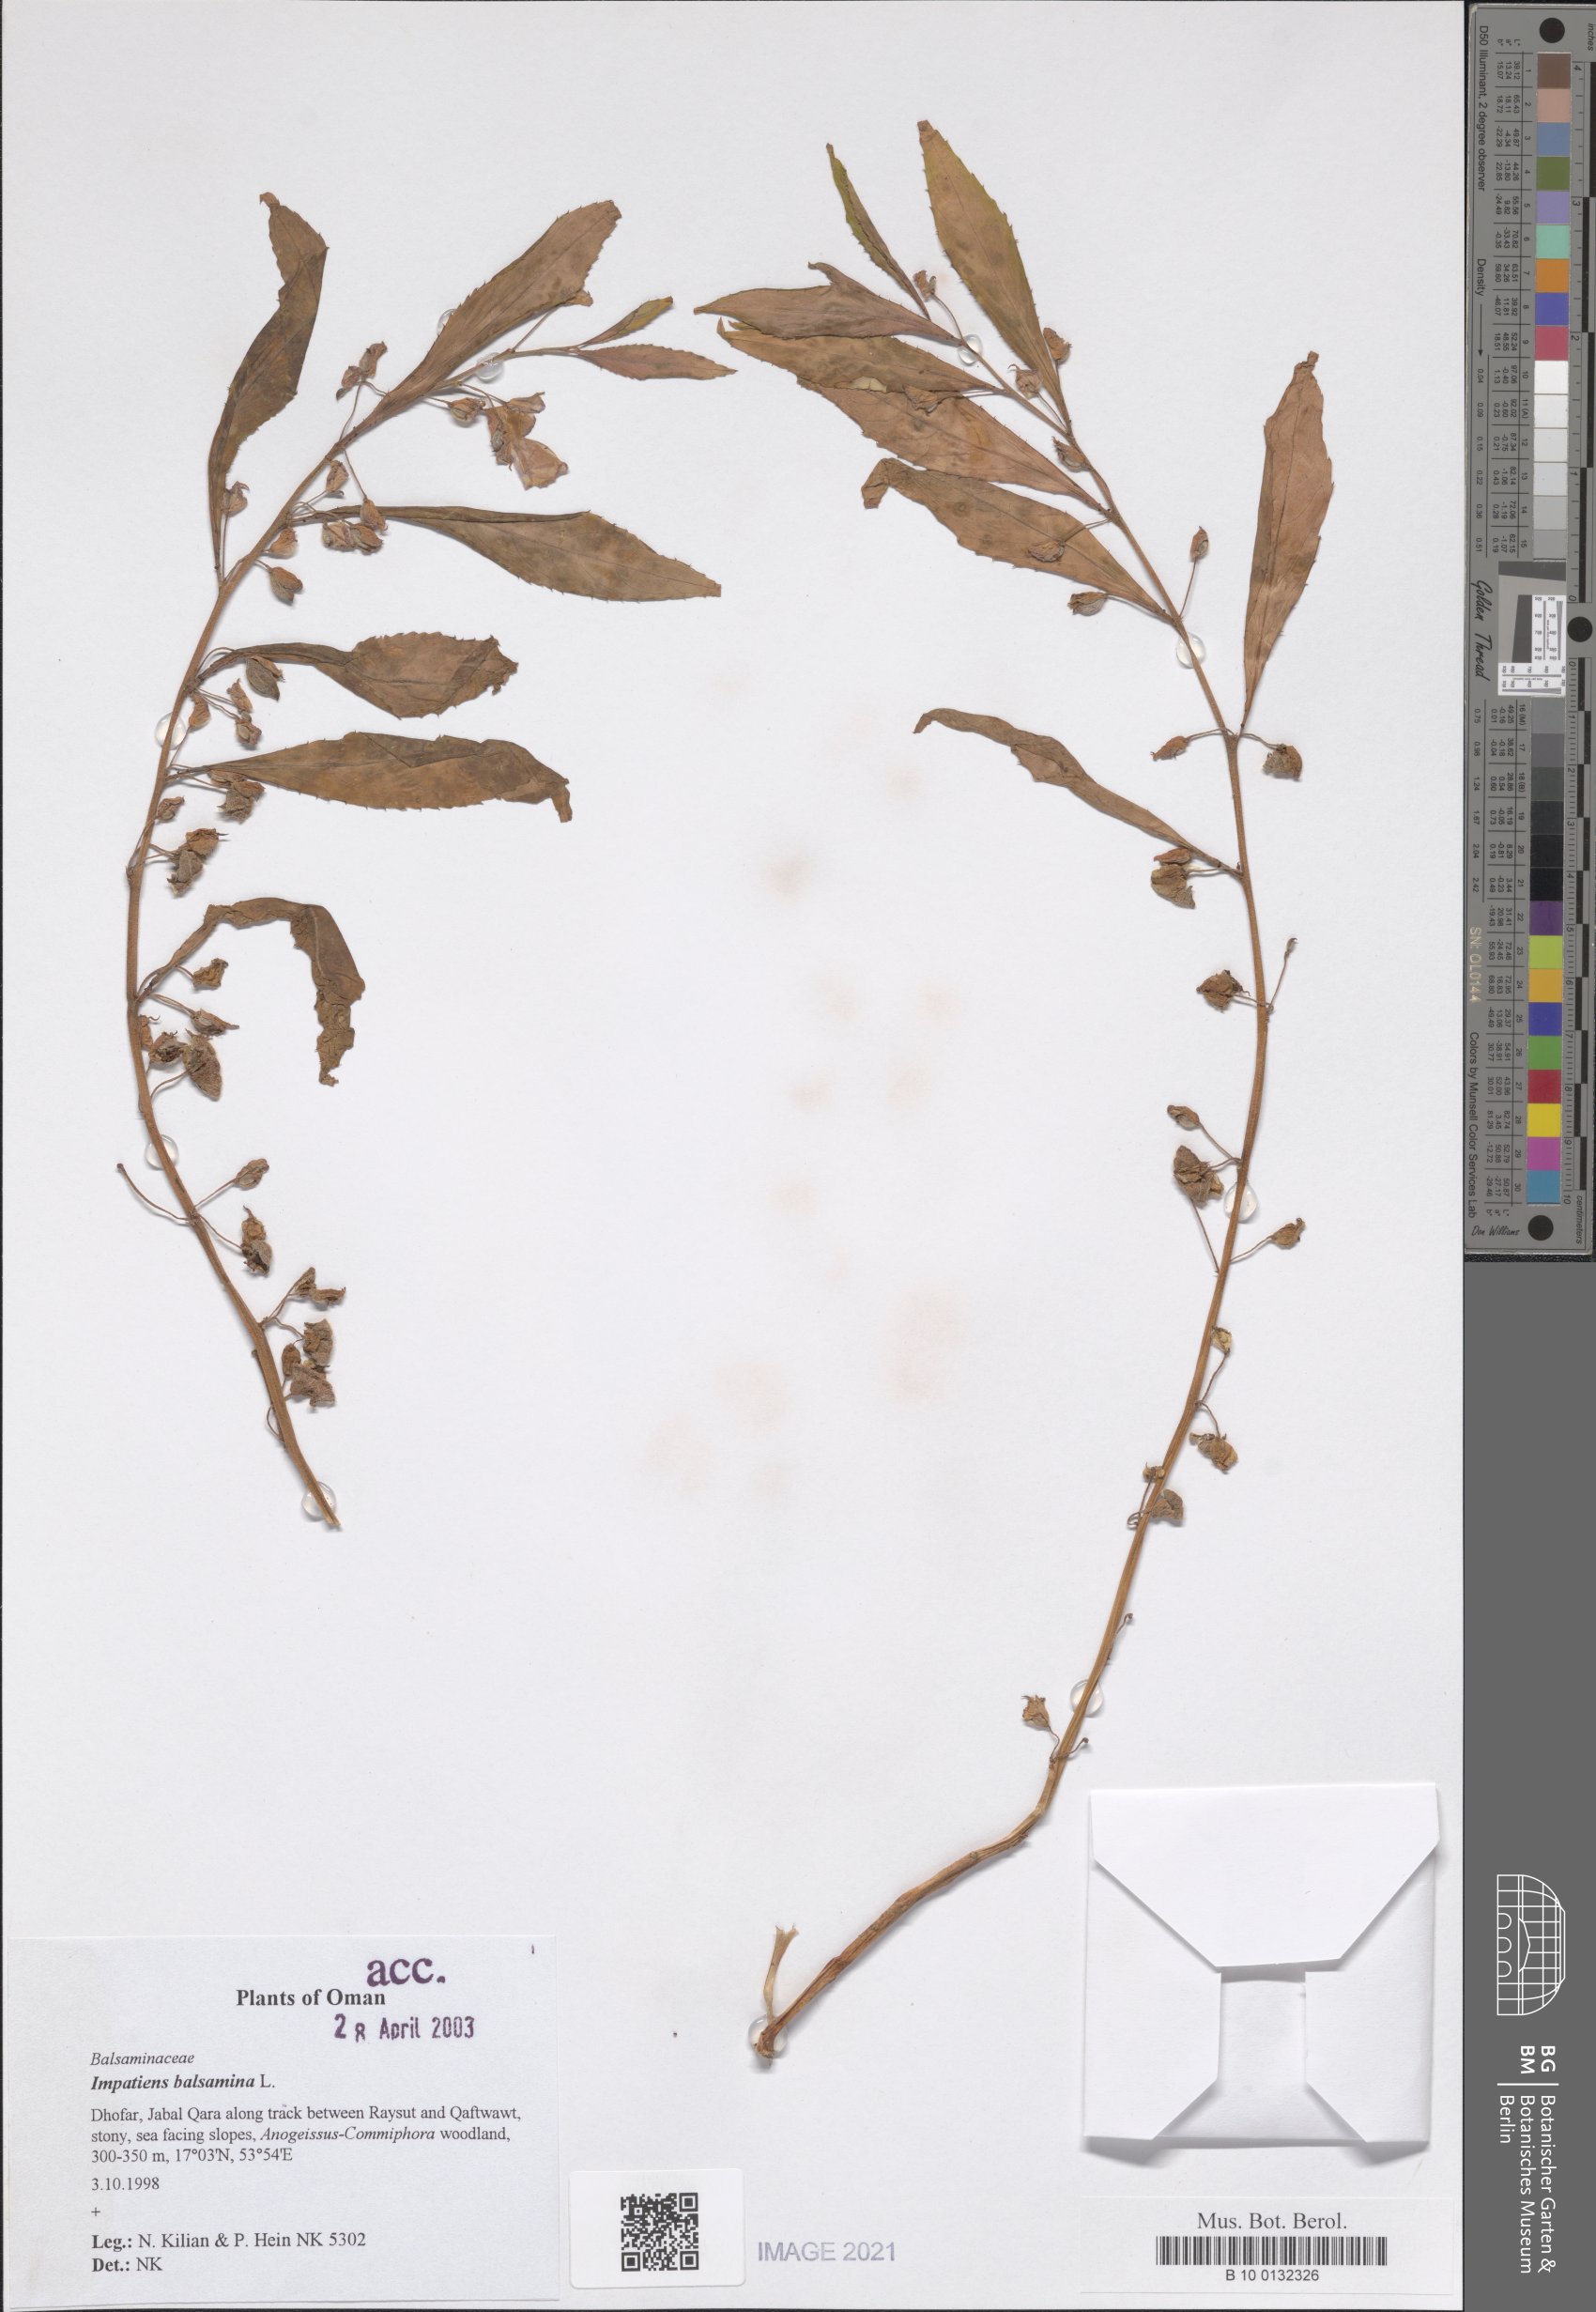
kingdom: Plantae
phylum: Tracheophyta
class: Magnoliopsida
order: Ericales
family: Balsaminaceae
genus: Impatiens
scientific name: Impatiens balsamina
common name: Balsam
